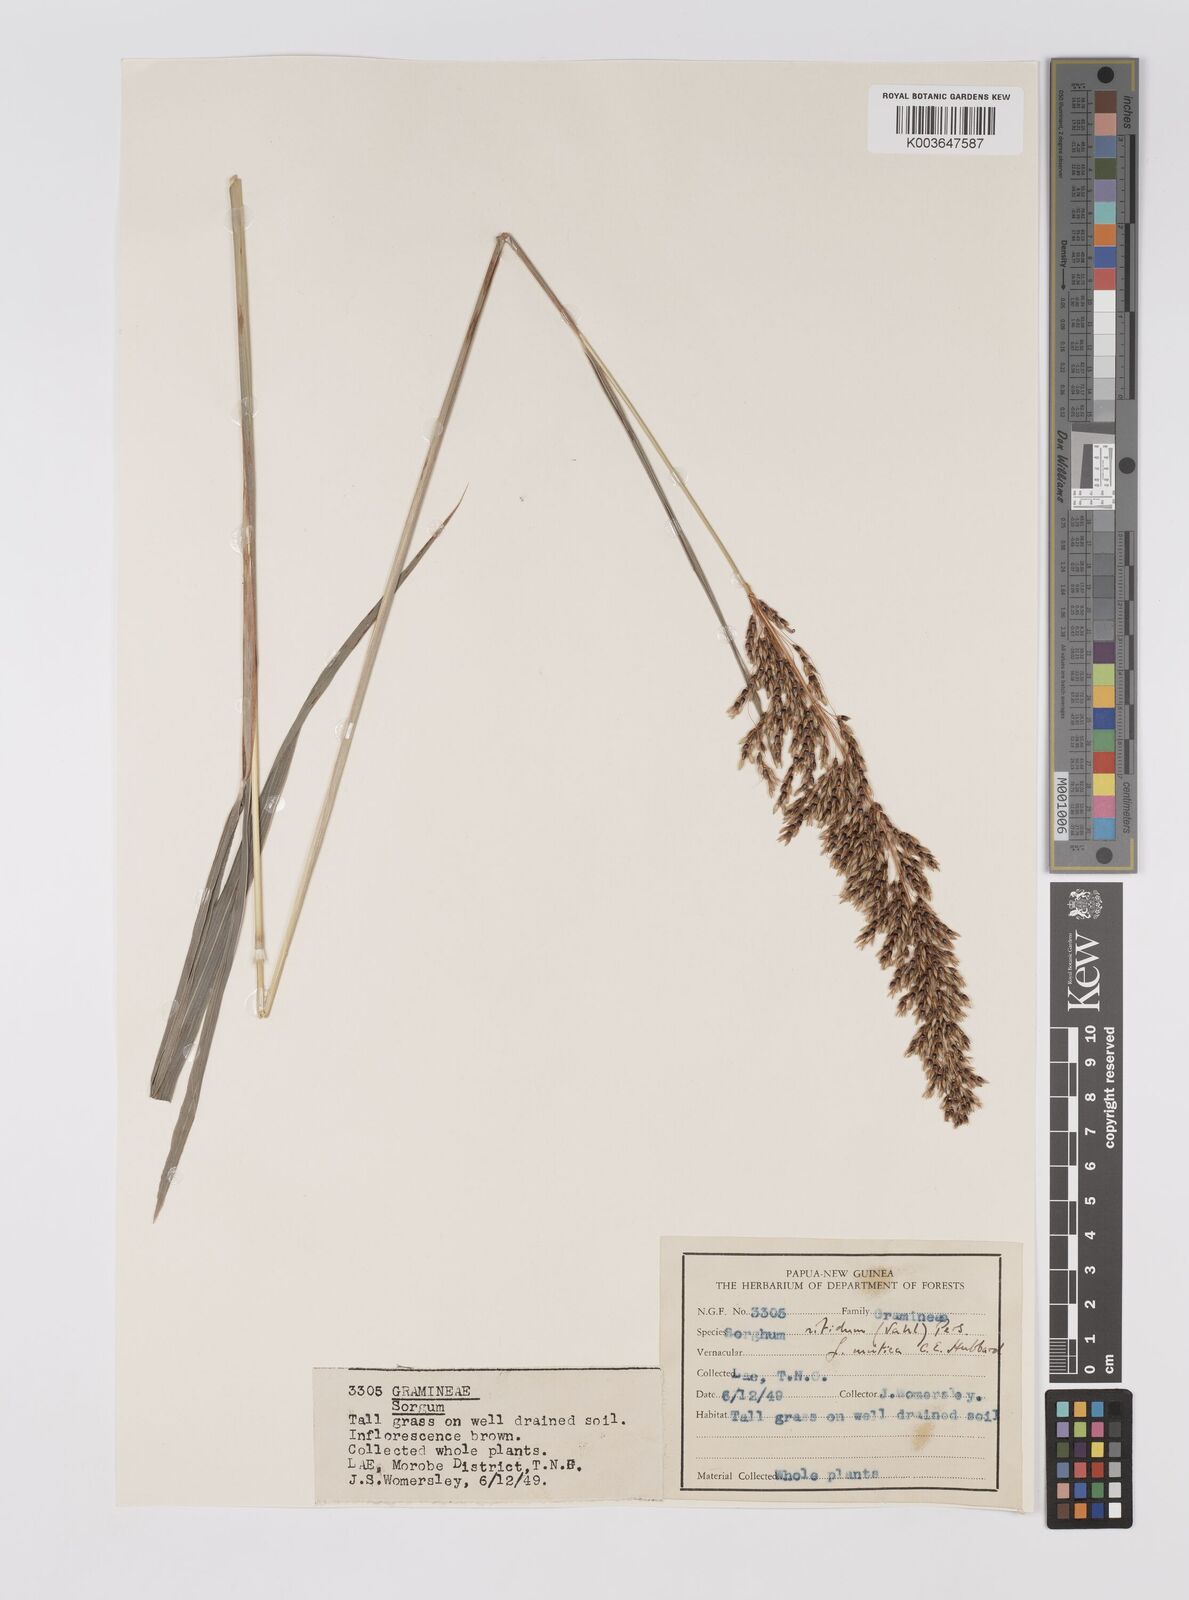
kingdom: Plantae
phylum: Tracheophyta
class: Liliopsida
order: Poales
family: Poaceae
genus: Sorghum
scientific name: Sorghum nitidum
